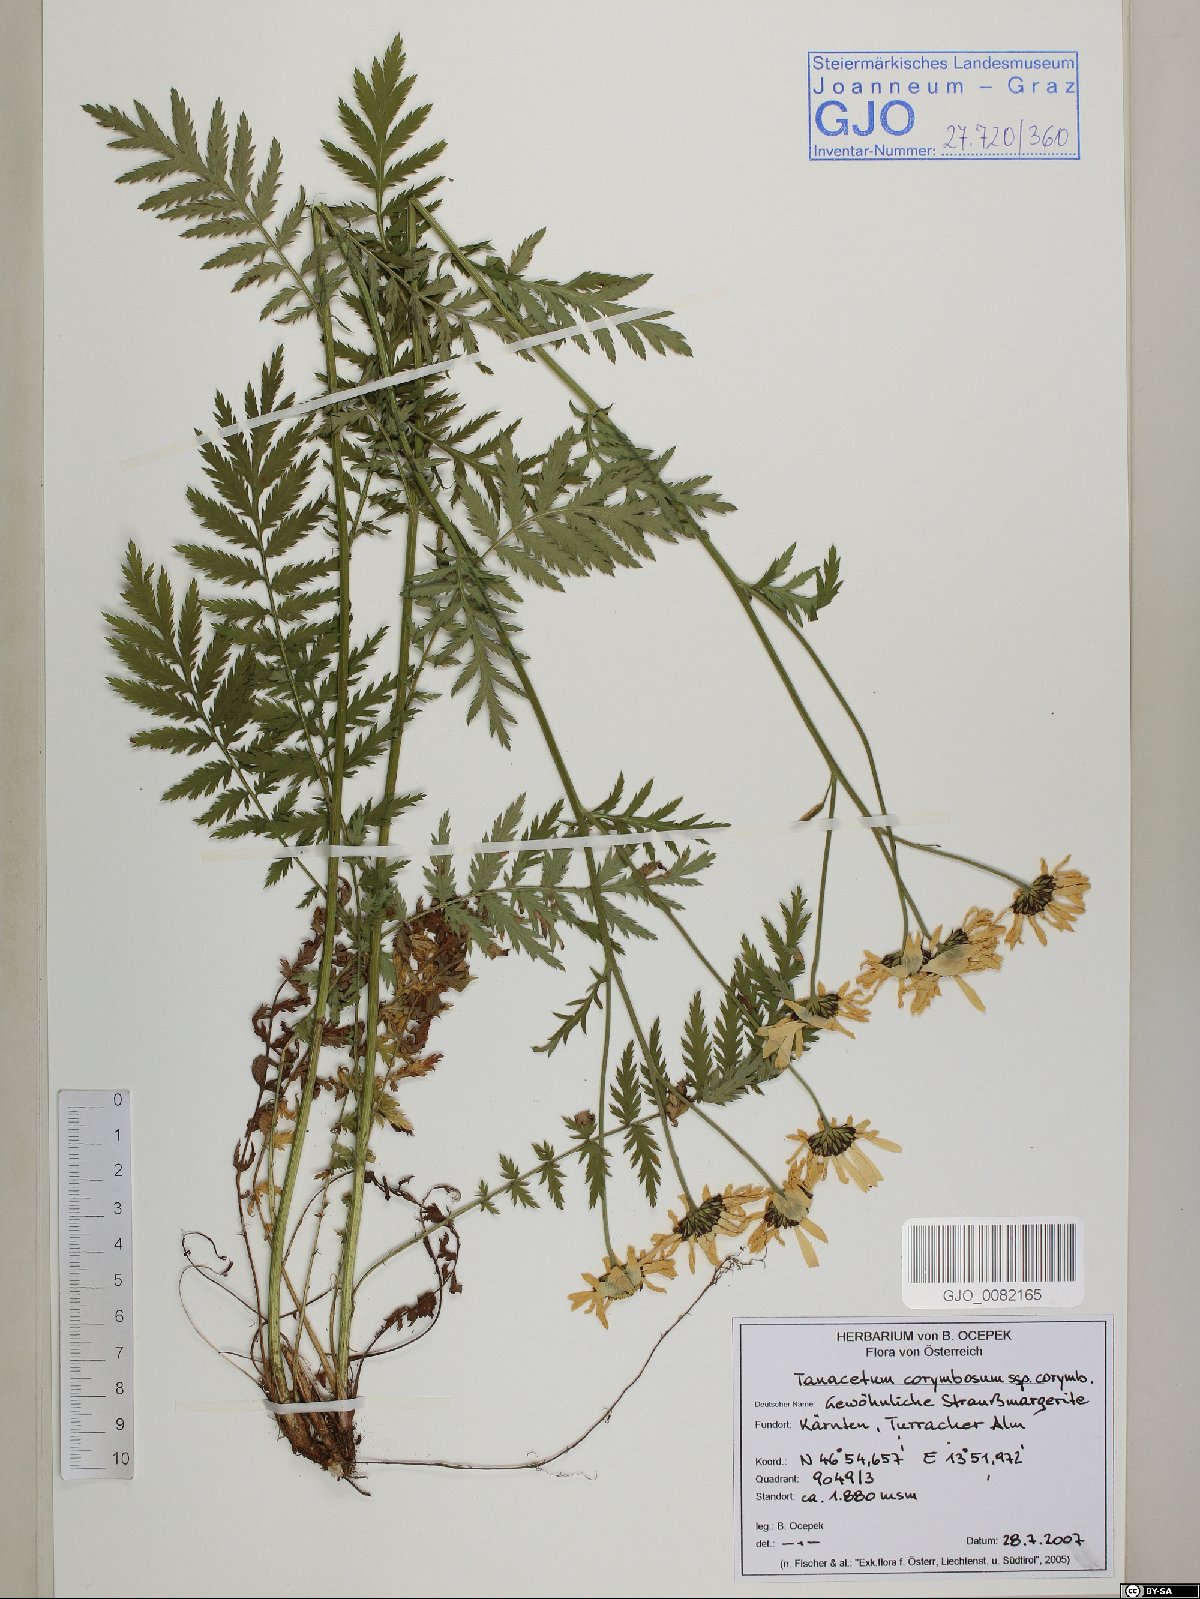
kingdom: Plantae
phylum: Tracheophyta
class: Magnoliopsida
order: Asterales
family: Asteraceae
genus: Tanacetum
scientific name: Tanacetum corymbosum
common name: Scentless feverfew
